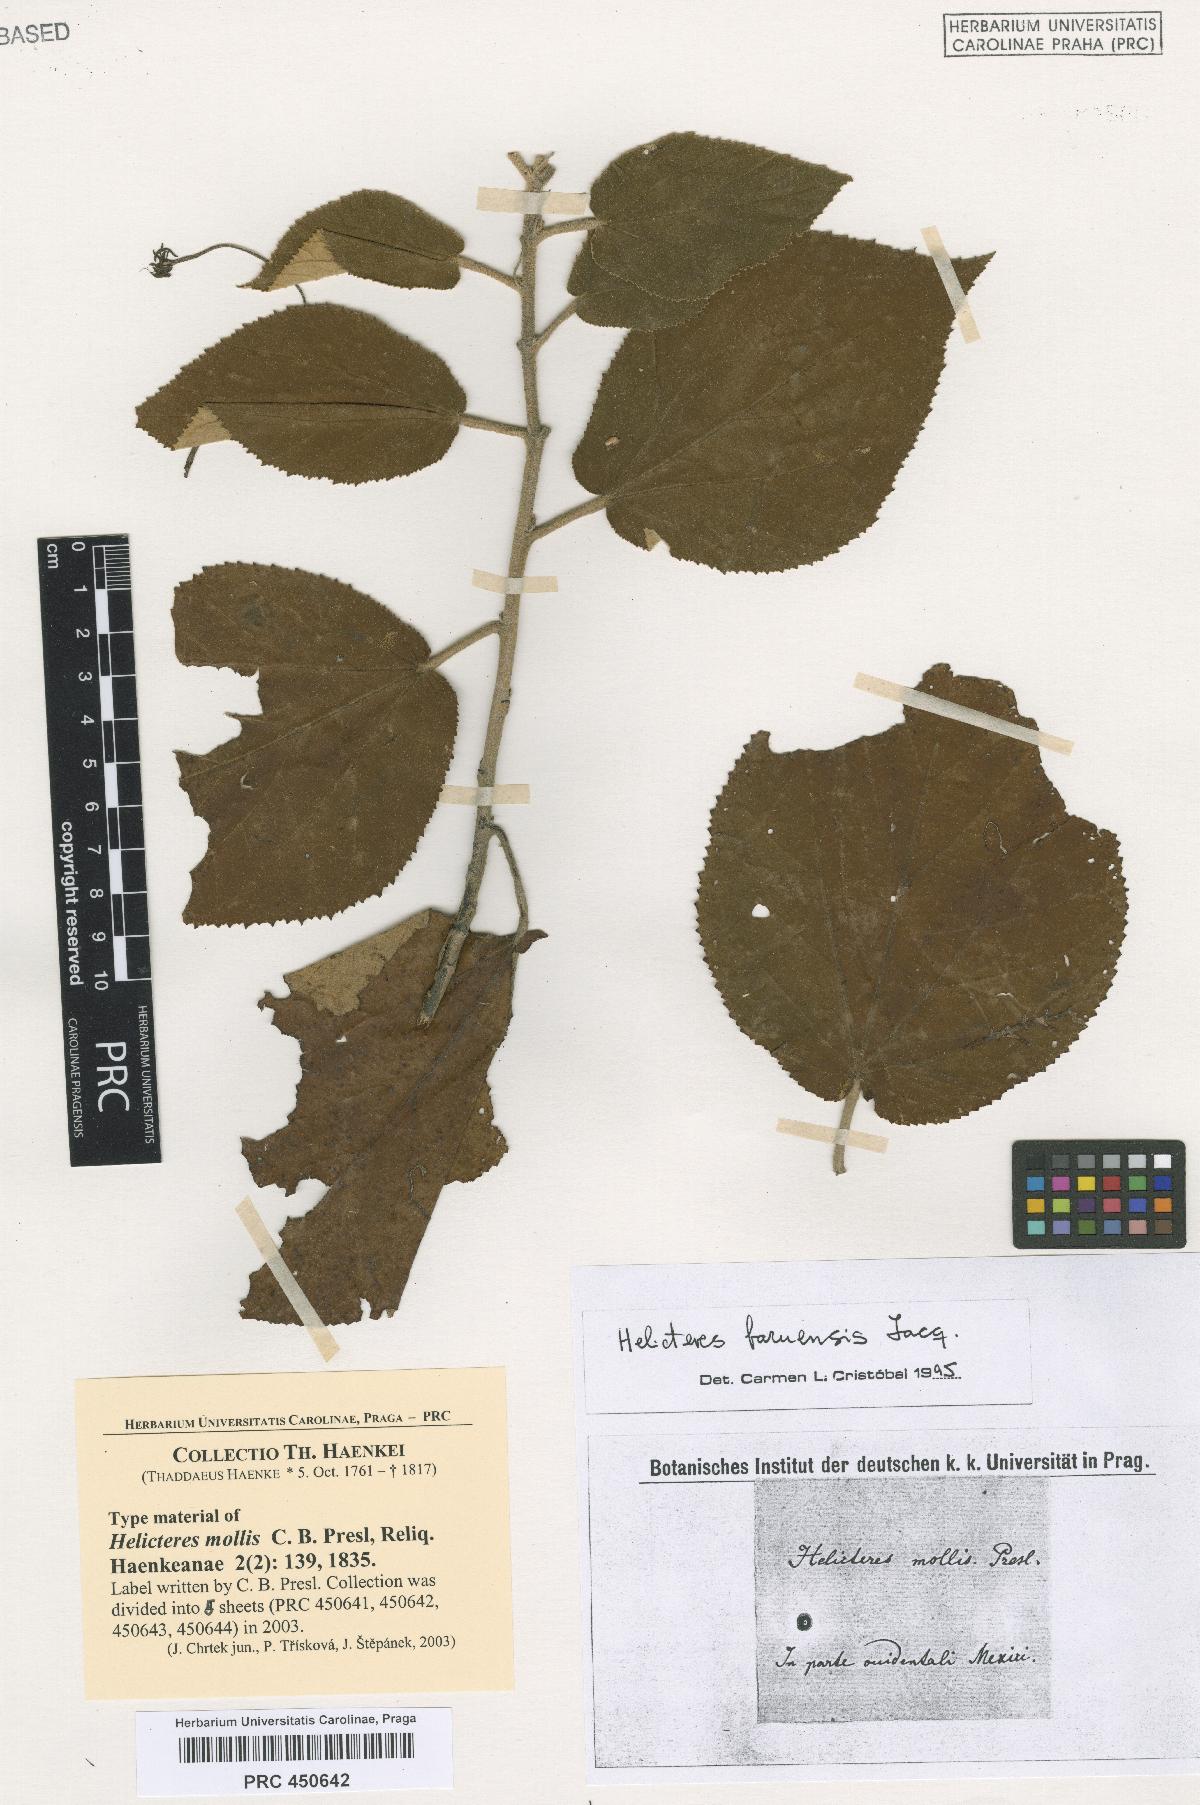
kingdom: Plantae
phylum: Tracheophyta
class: Magnoliopsida
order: Malvales
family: Malvaceae
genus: Helicteres
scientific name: Helicteres baruensis
